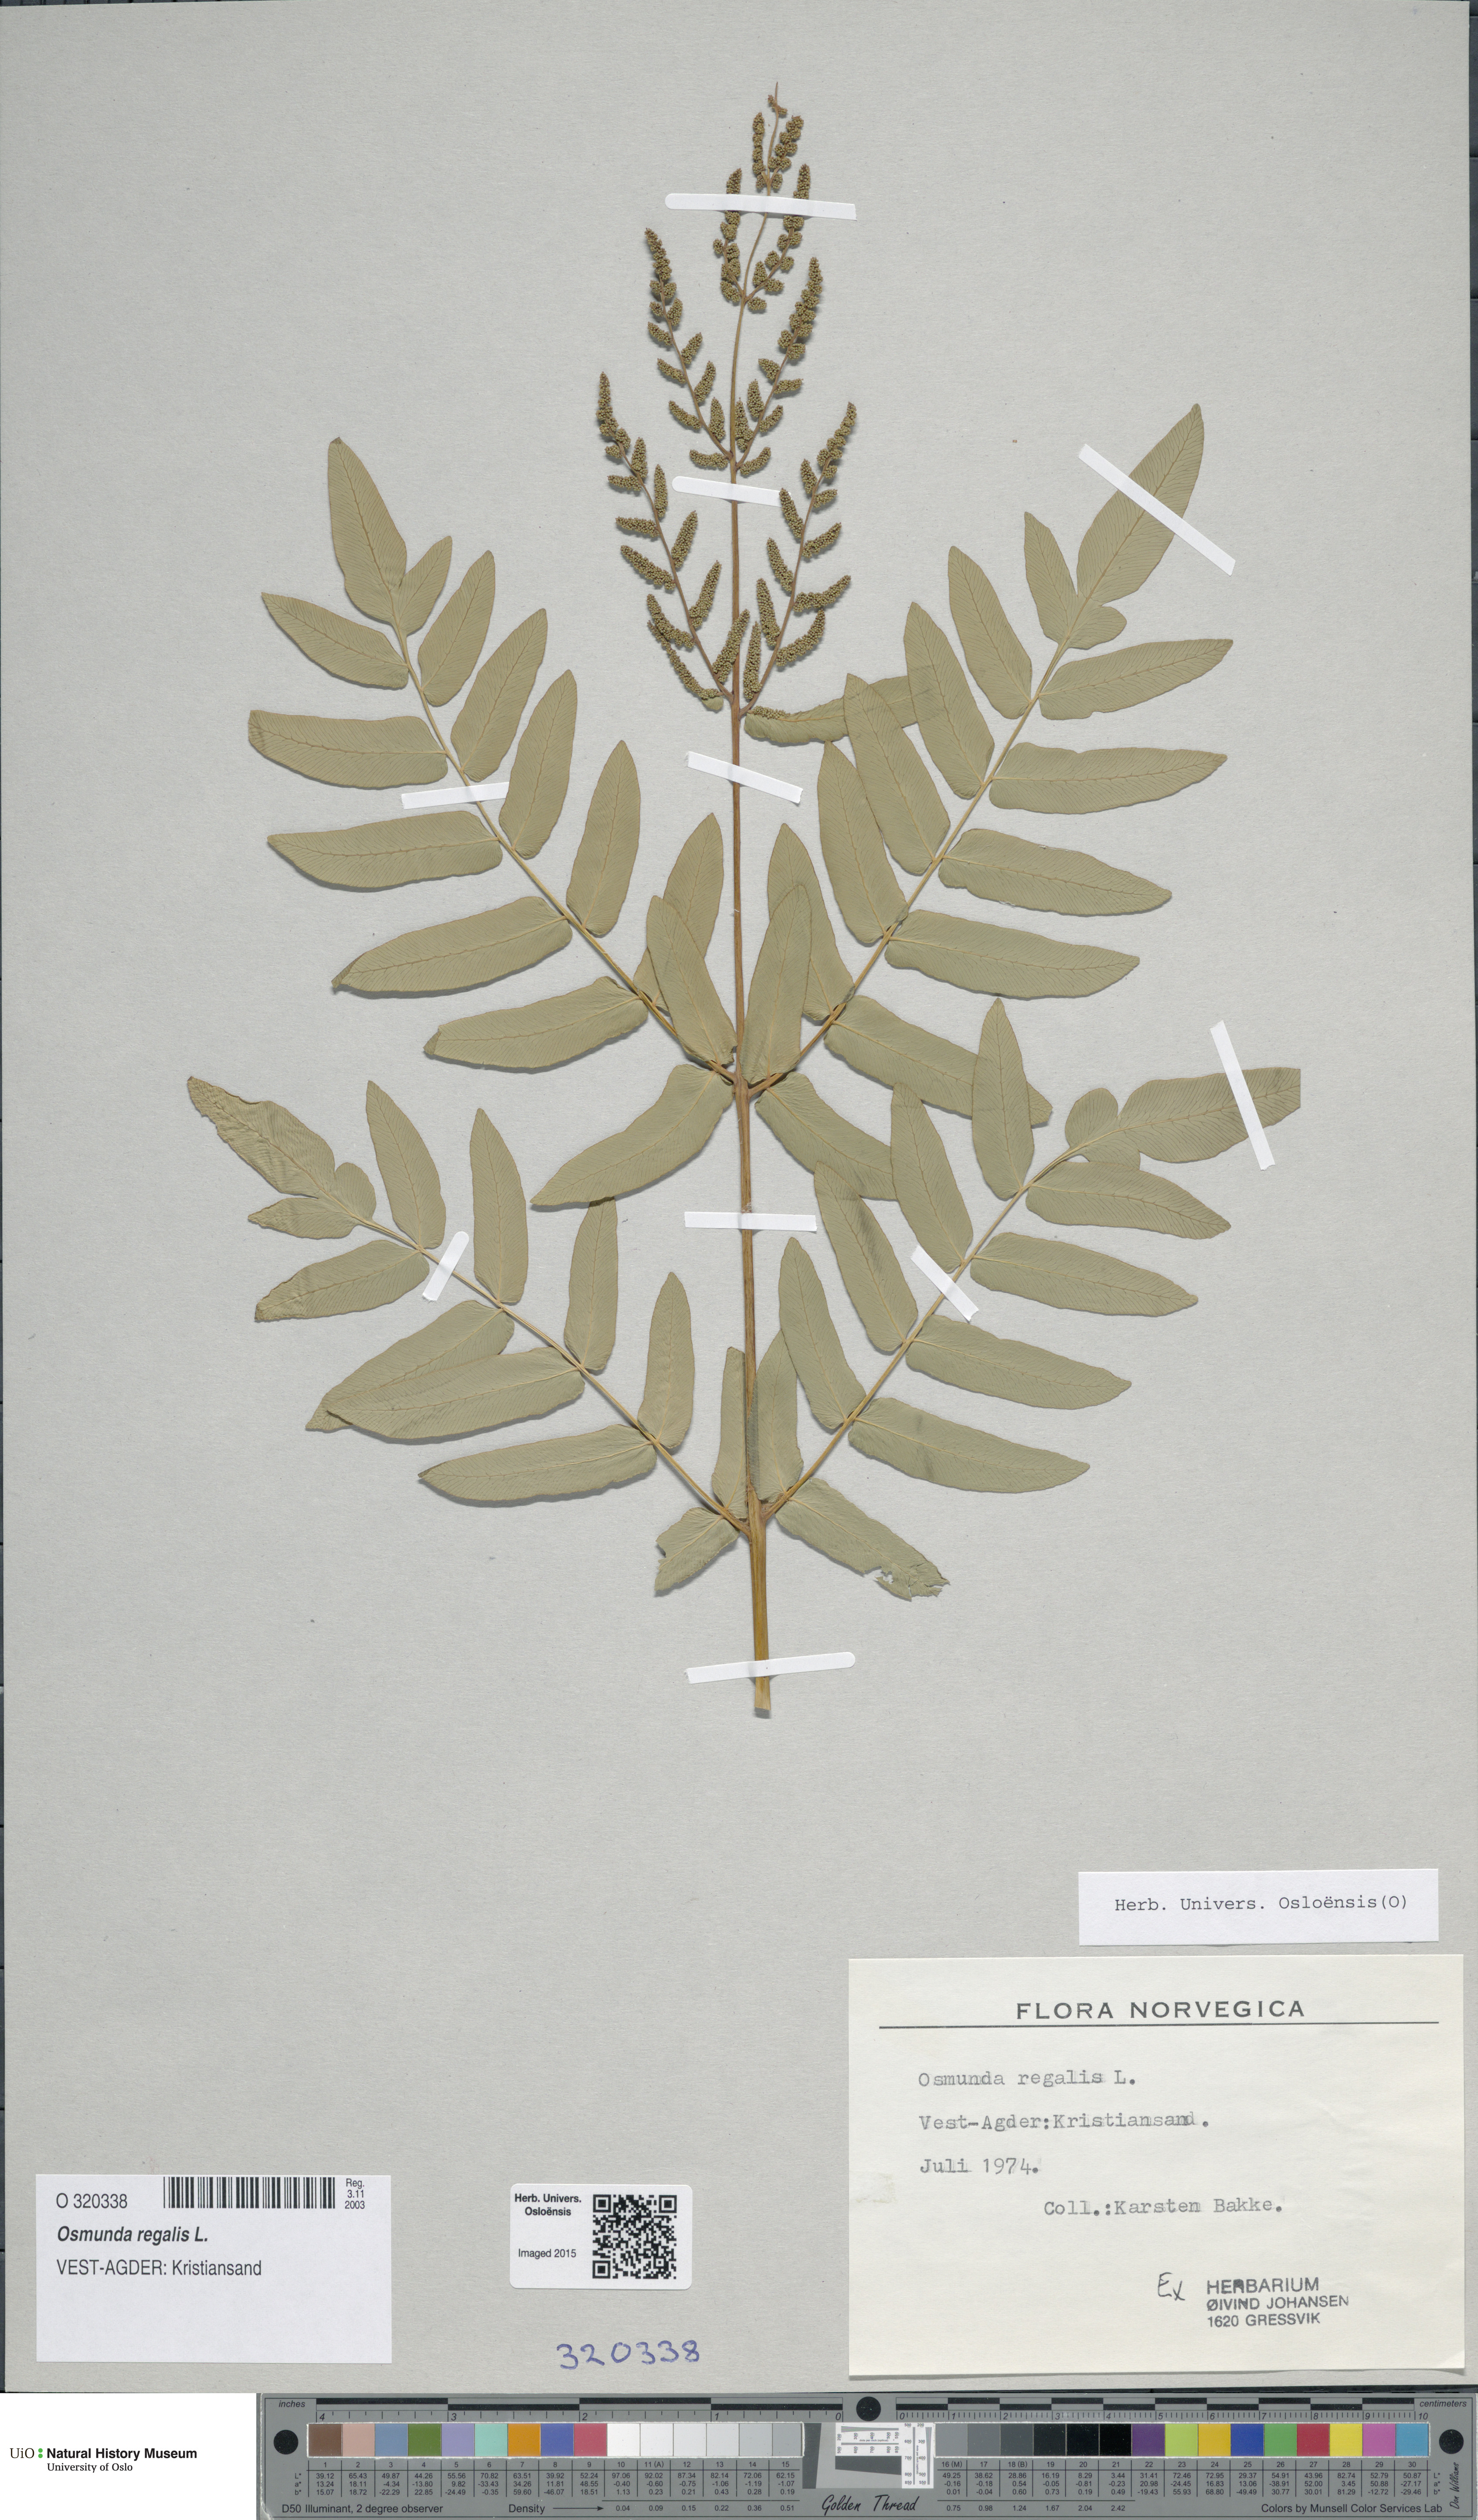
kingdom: Plantae
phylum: Tracheophyta
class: Polypodiopsida
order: Osmundales
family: Osmundaceae
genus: Osmunda
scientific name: Osmunda regalis
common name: Royal fern
